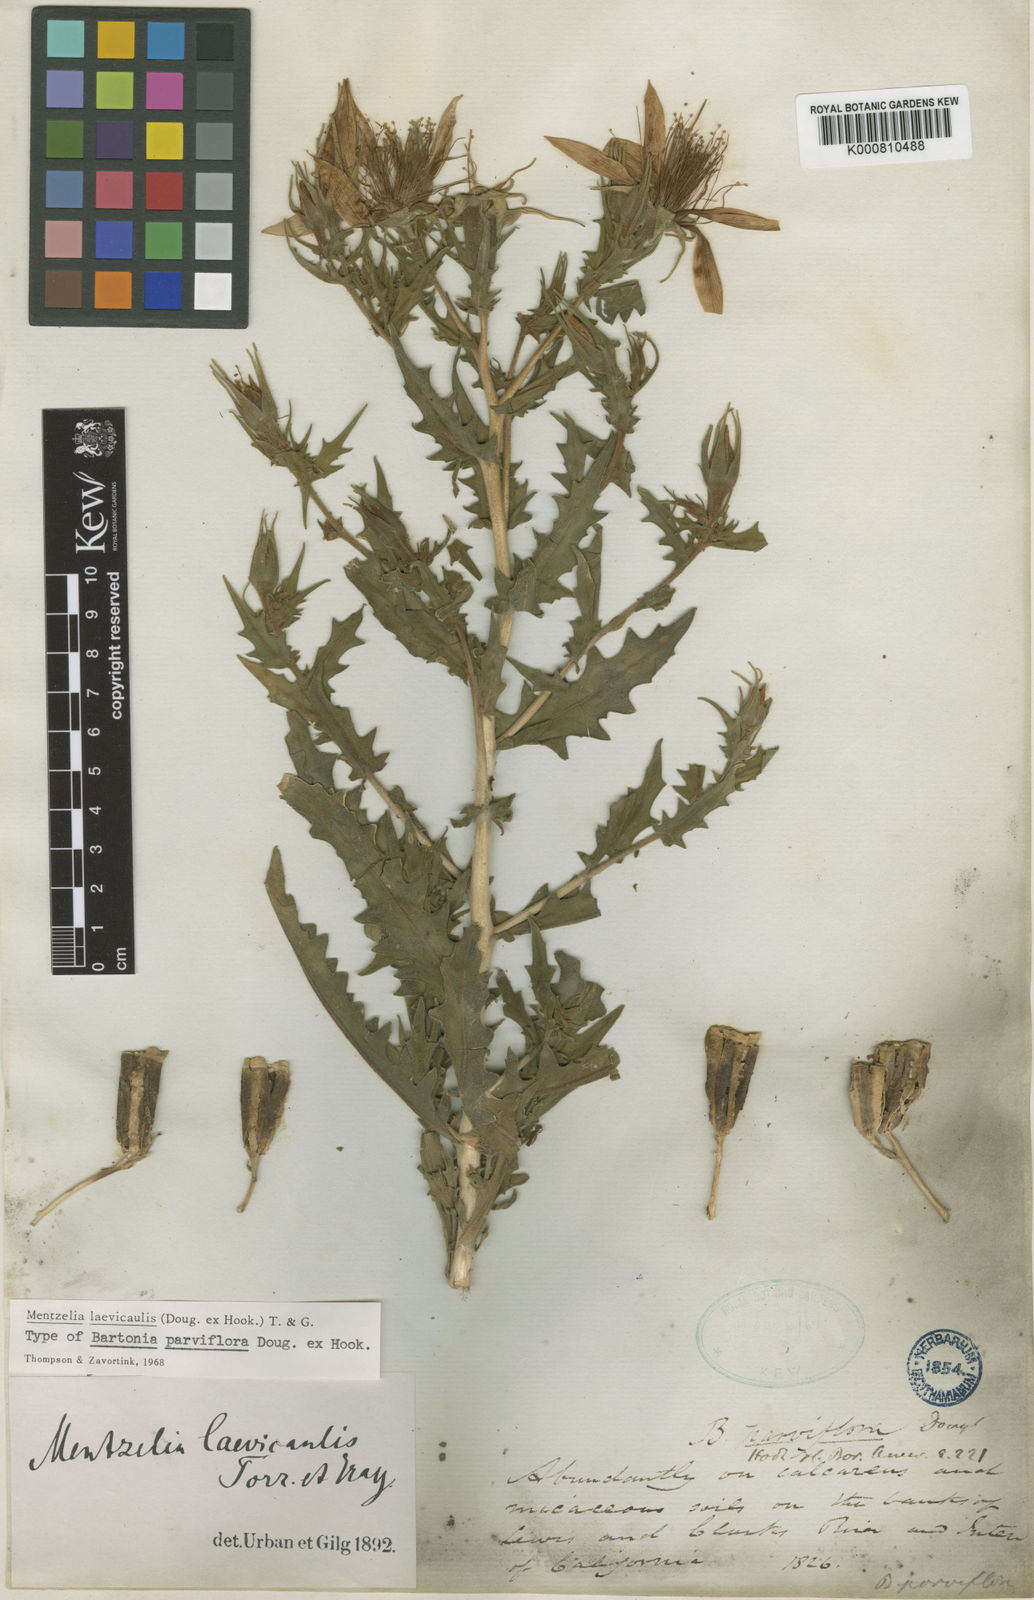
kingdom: Plantae
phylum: Tracheophyta
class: Magnoliopsida
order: Cornales
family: Loasaceae
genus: Mentzelia
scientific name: Mentzelia laevicaulis
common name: Smooth-stem blazingstar
